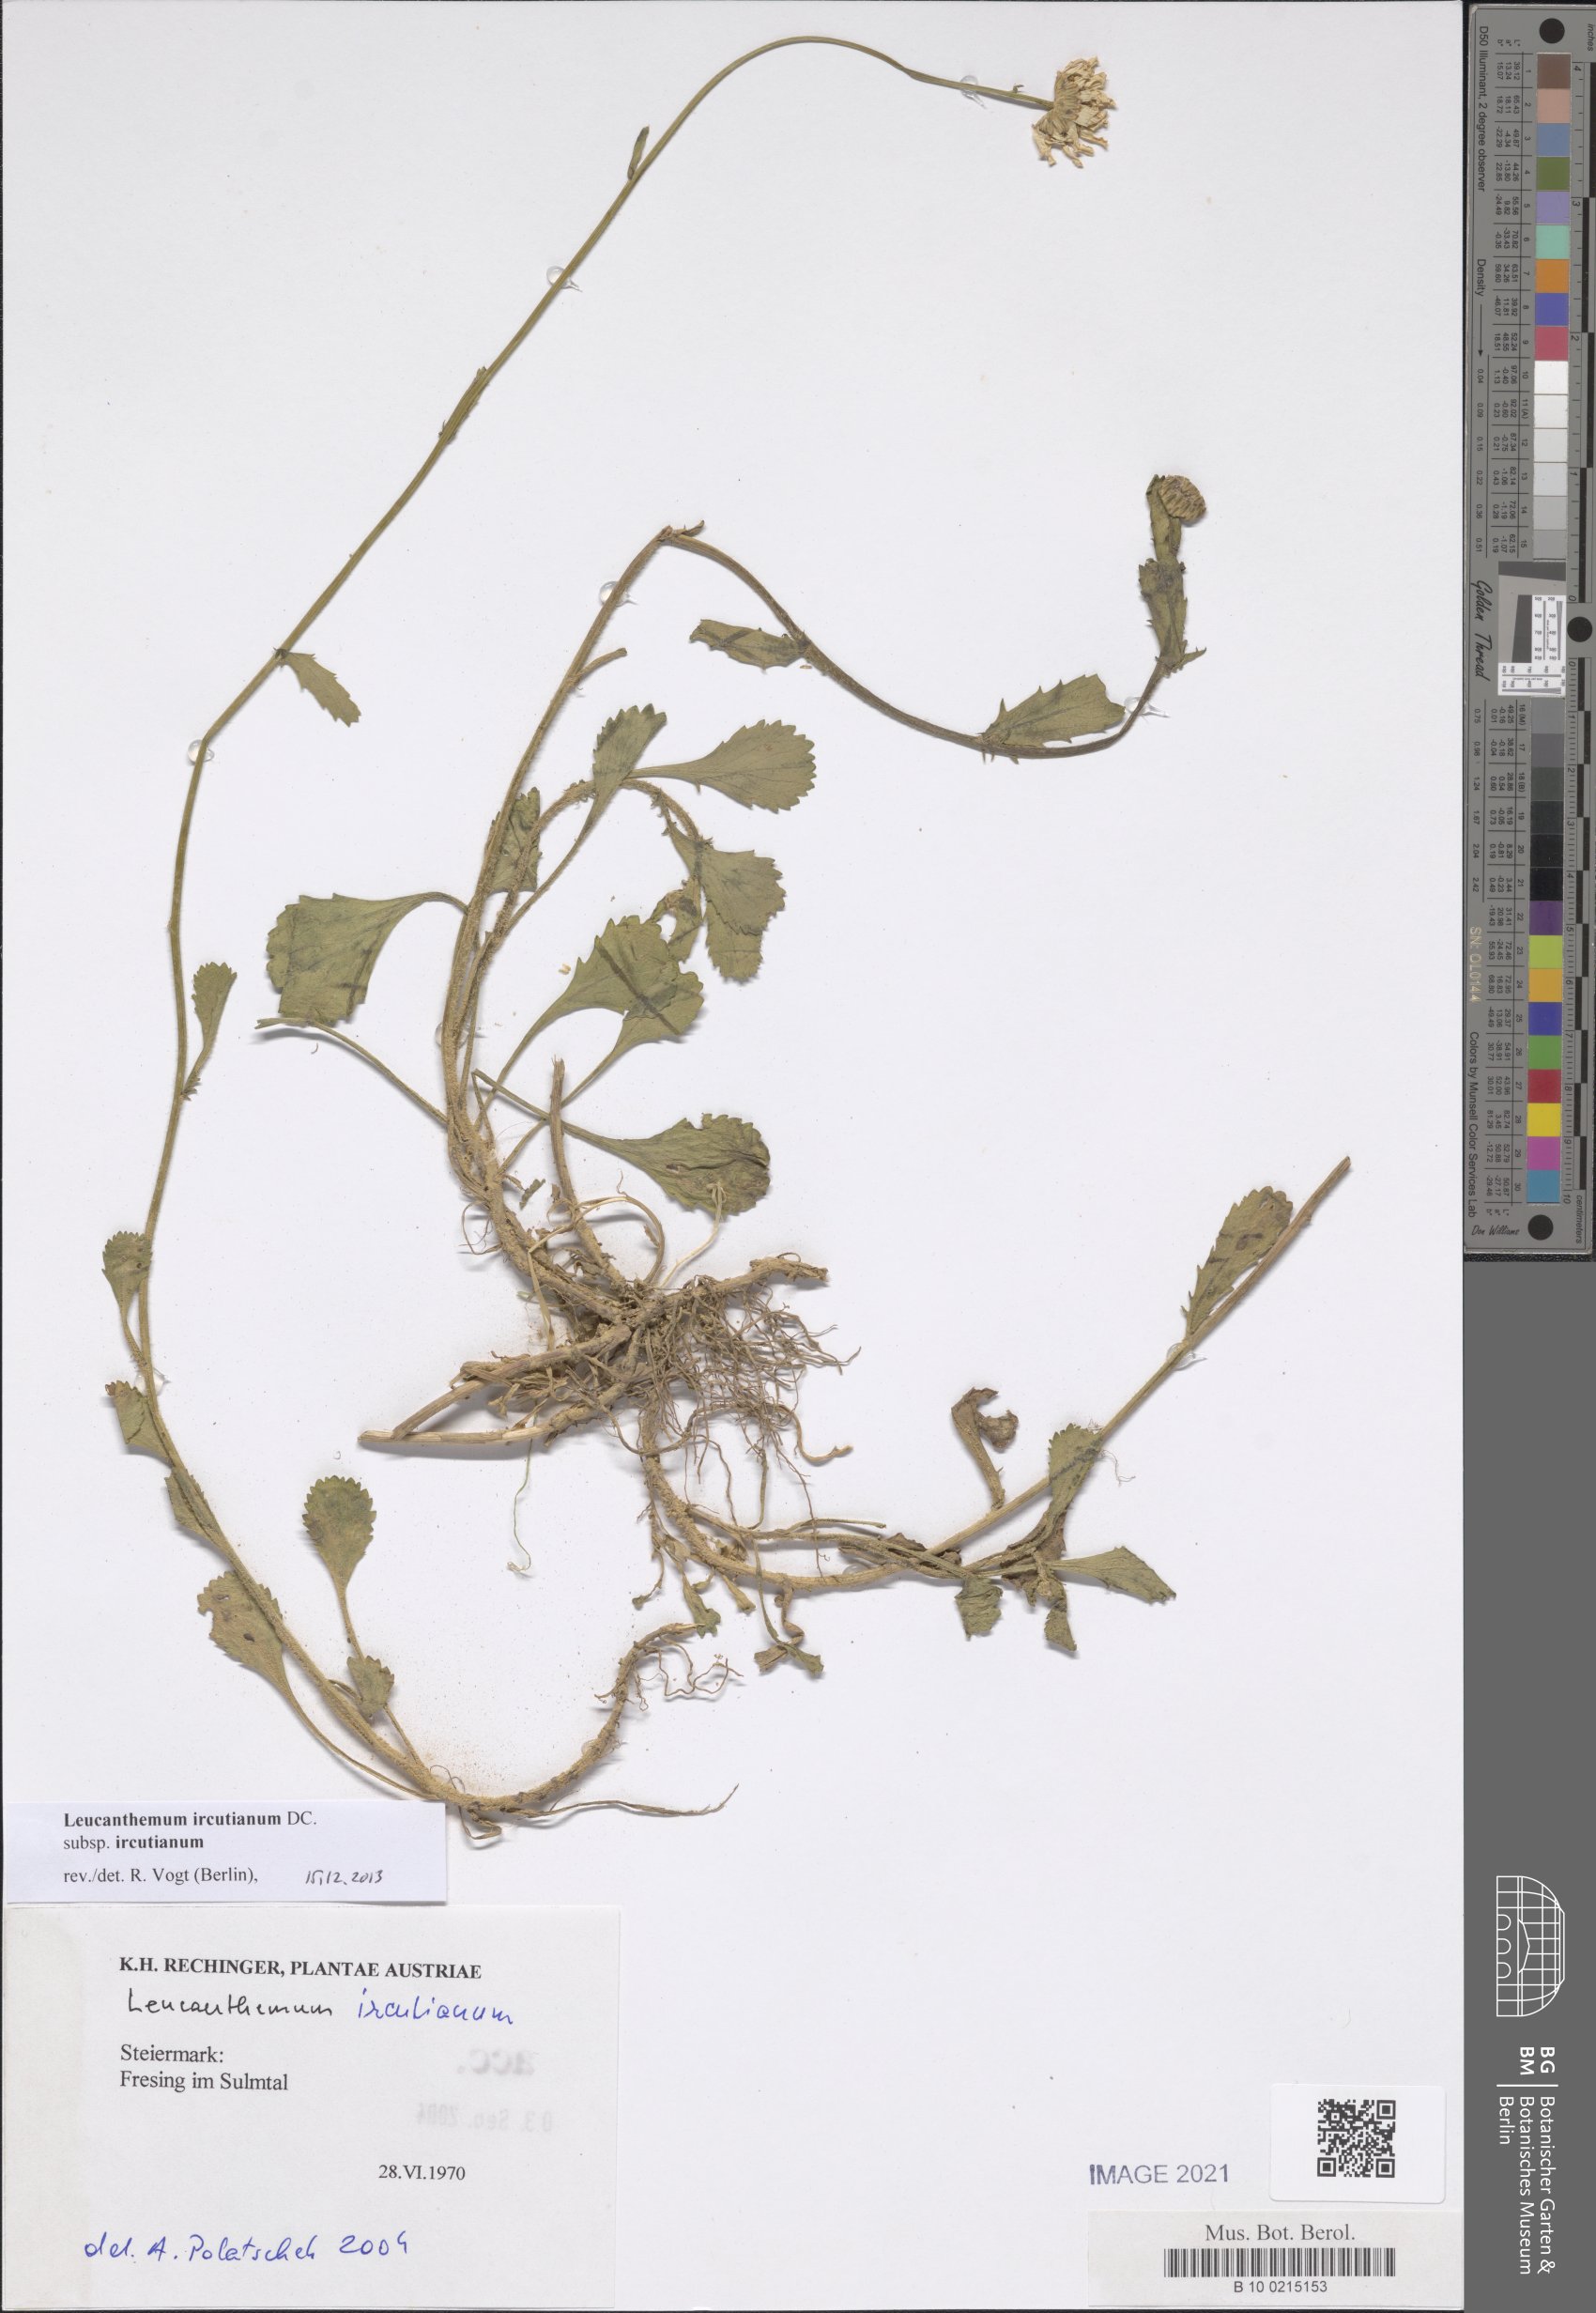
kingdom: Plantae
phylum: Tracheophyta
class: Magnoliopsida
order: Asterales
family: Asteraceae
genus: Leucanthemum
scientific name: Leucanthemum ircutianum
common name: Daisy
